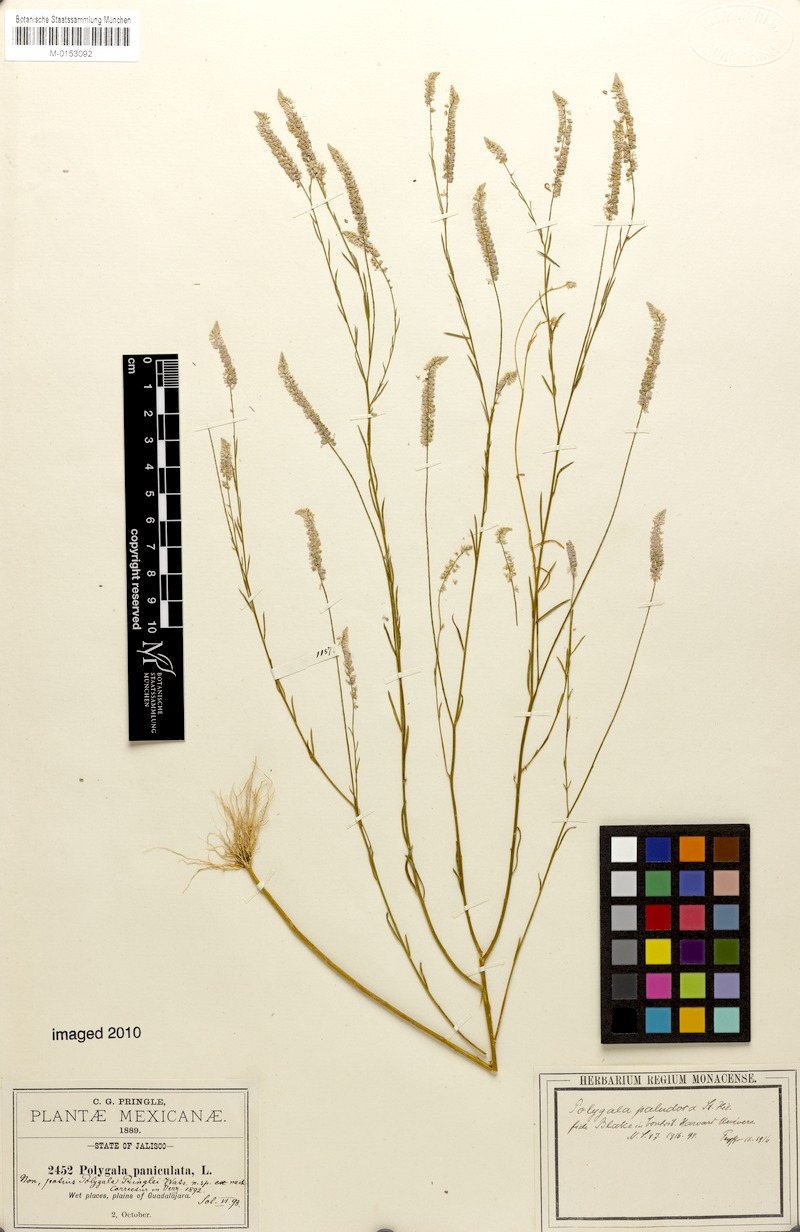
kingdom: Plantae
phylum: Tracheophyta
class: Magnoliopsida
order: Fabales
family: Polygalaceae
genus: Polygala
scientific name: Polygala tenella
